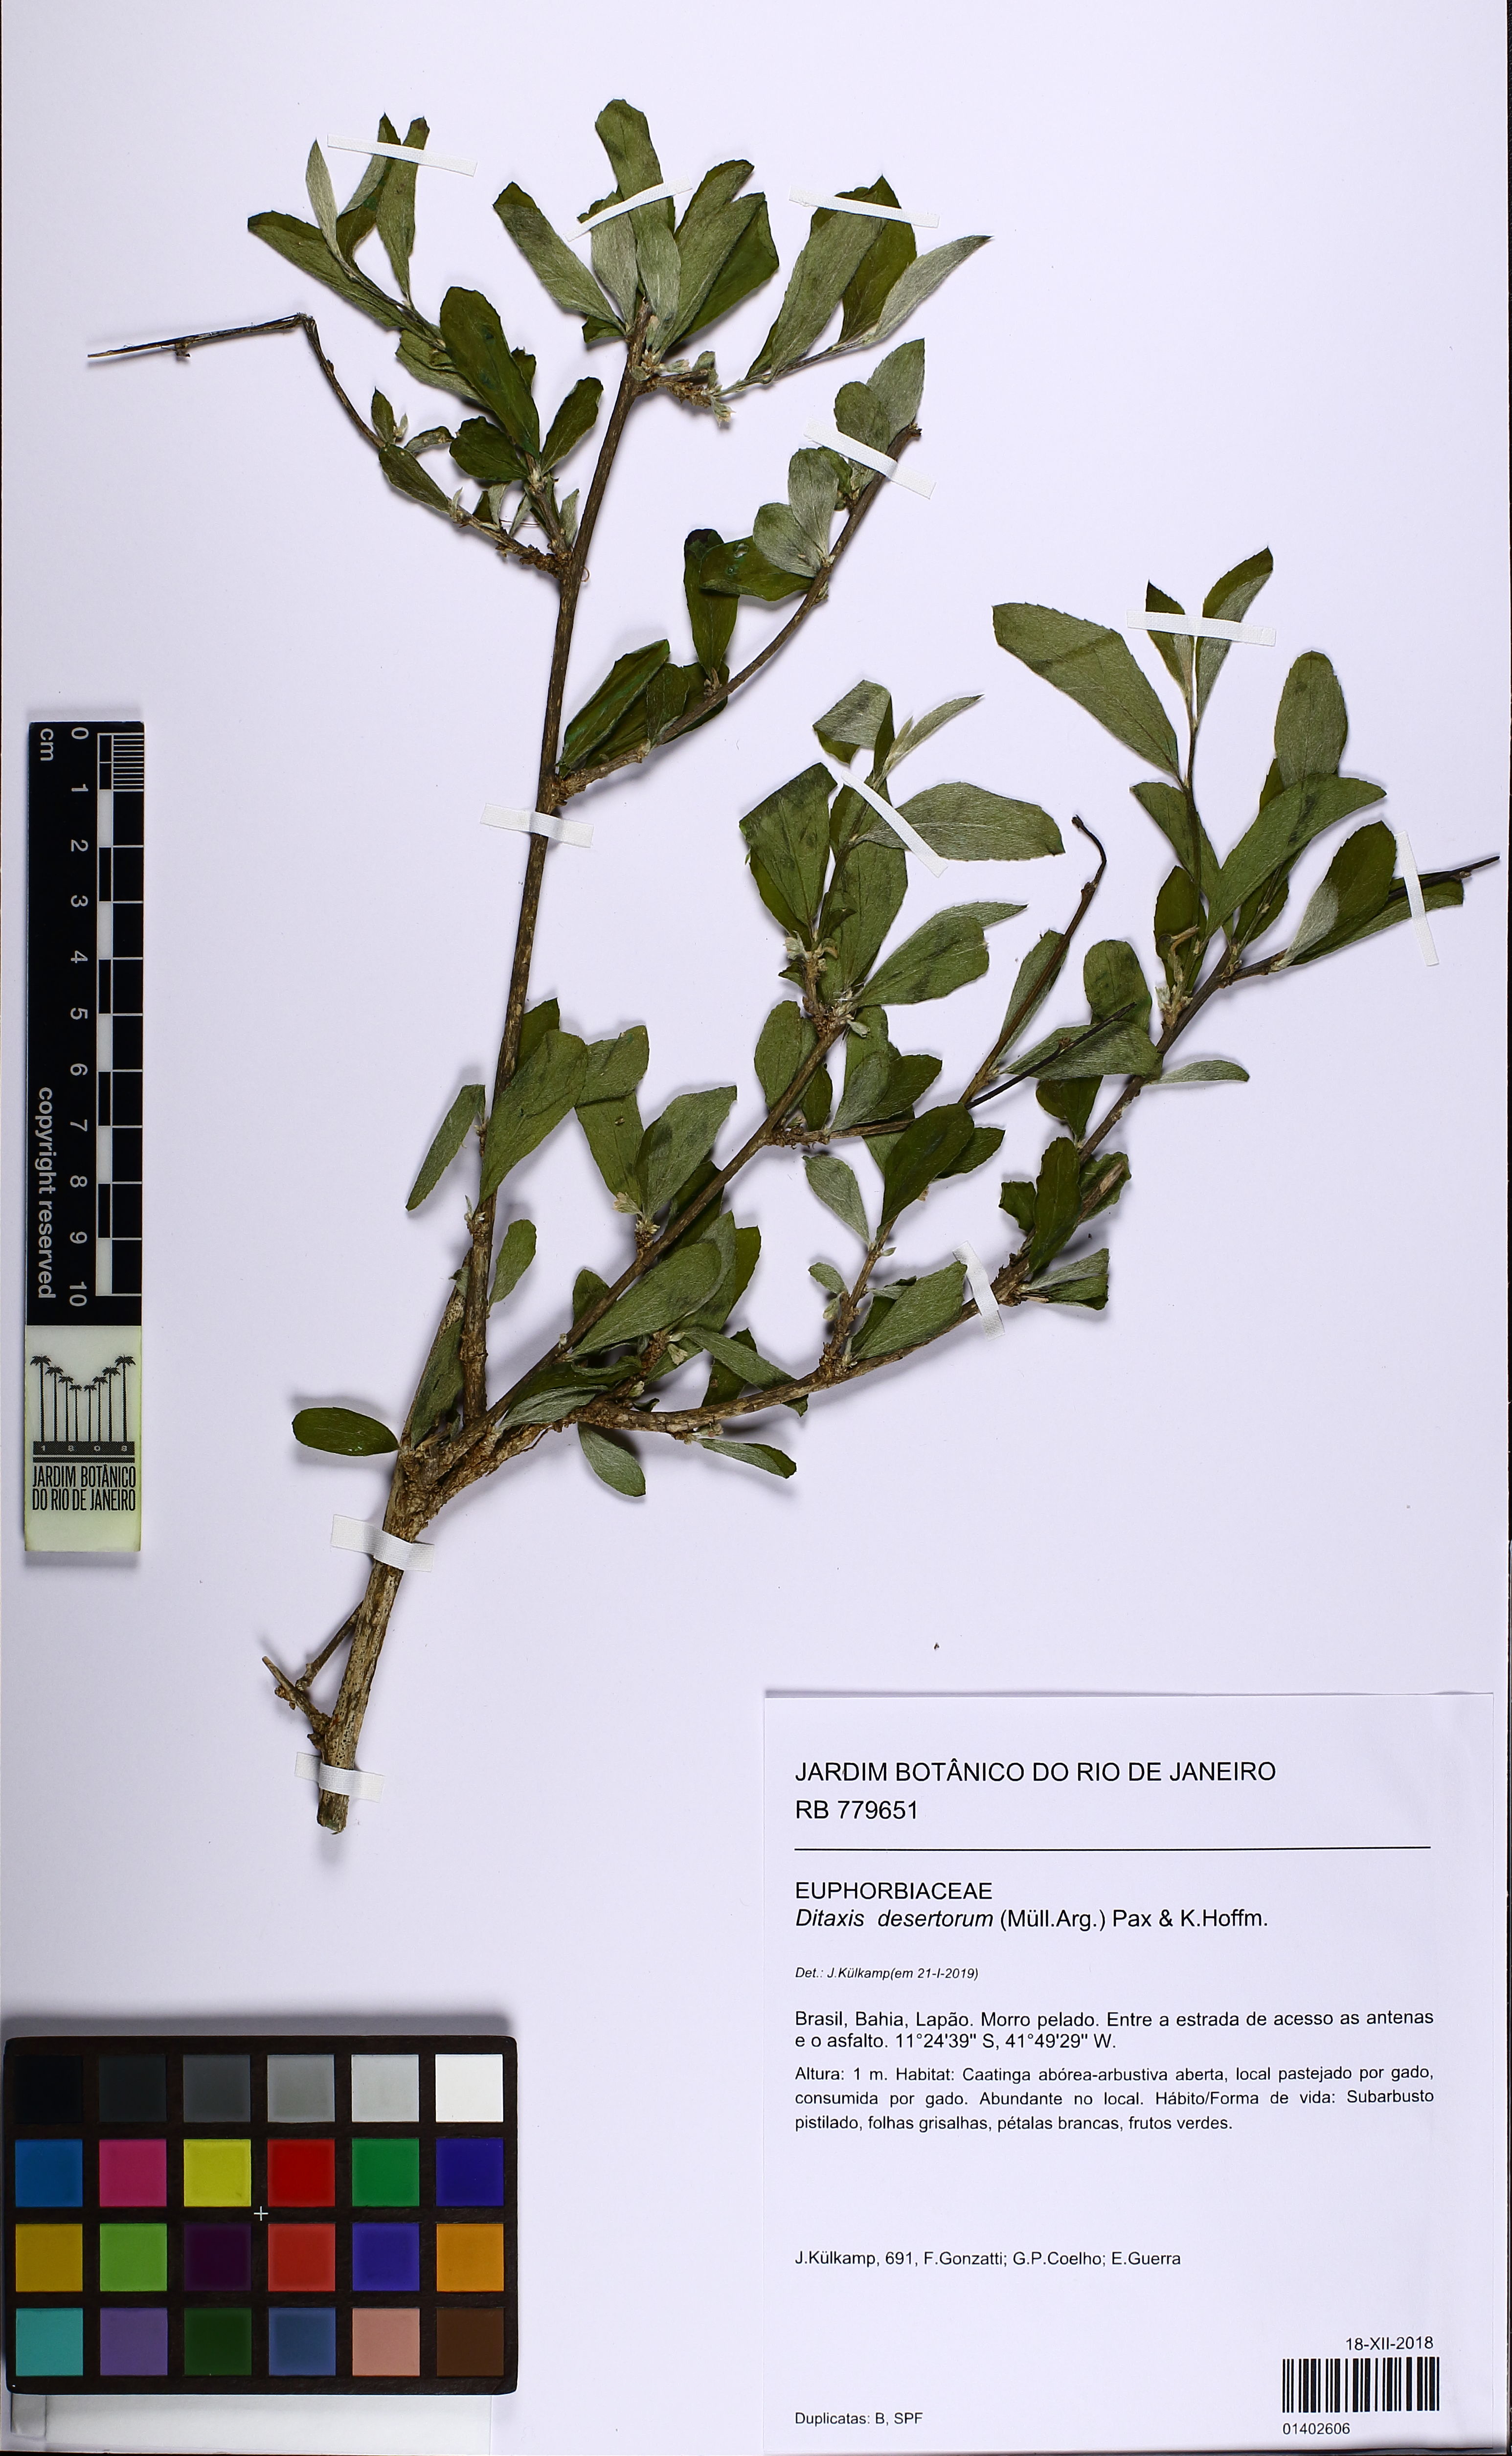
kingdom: Plantae
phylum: Tracheophyta
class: Magnoliopsida
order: Malpighiales
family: Euphorbiaceae
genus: Ditaxis
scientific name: Ditaxis desertorum
